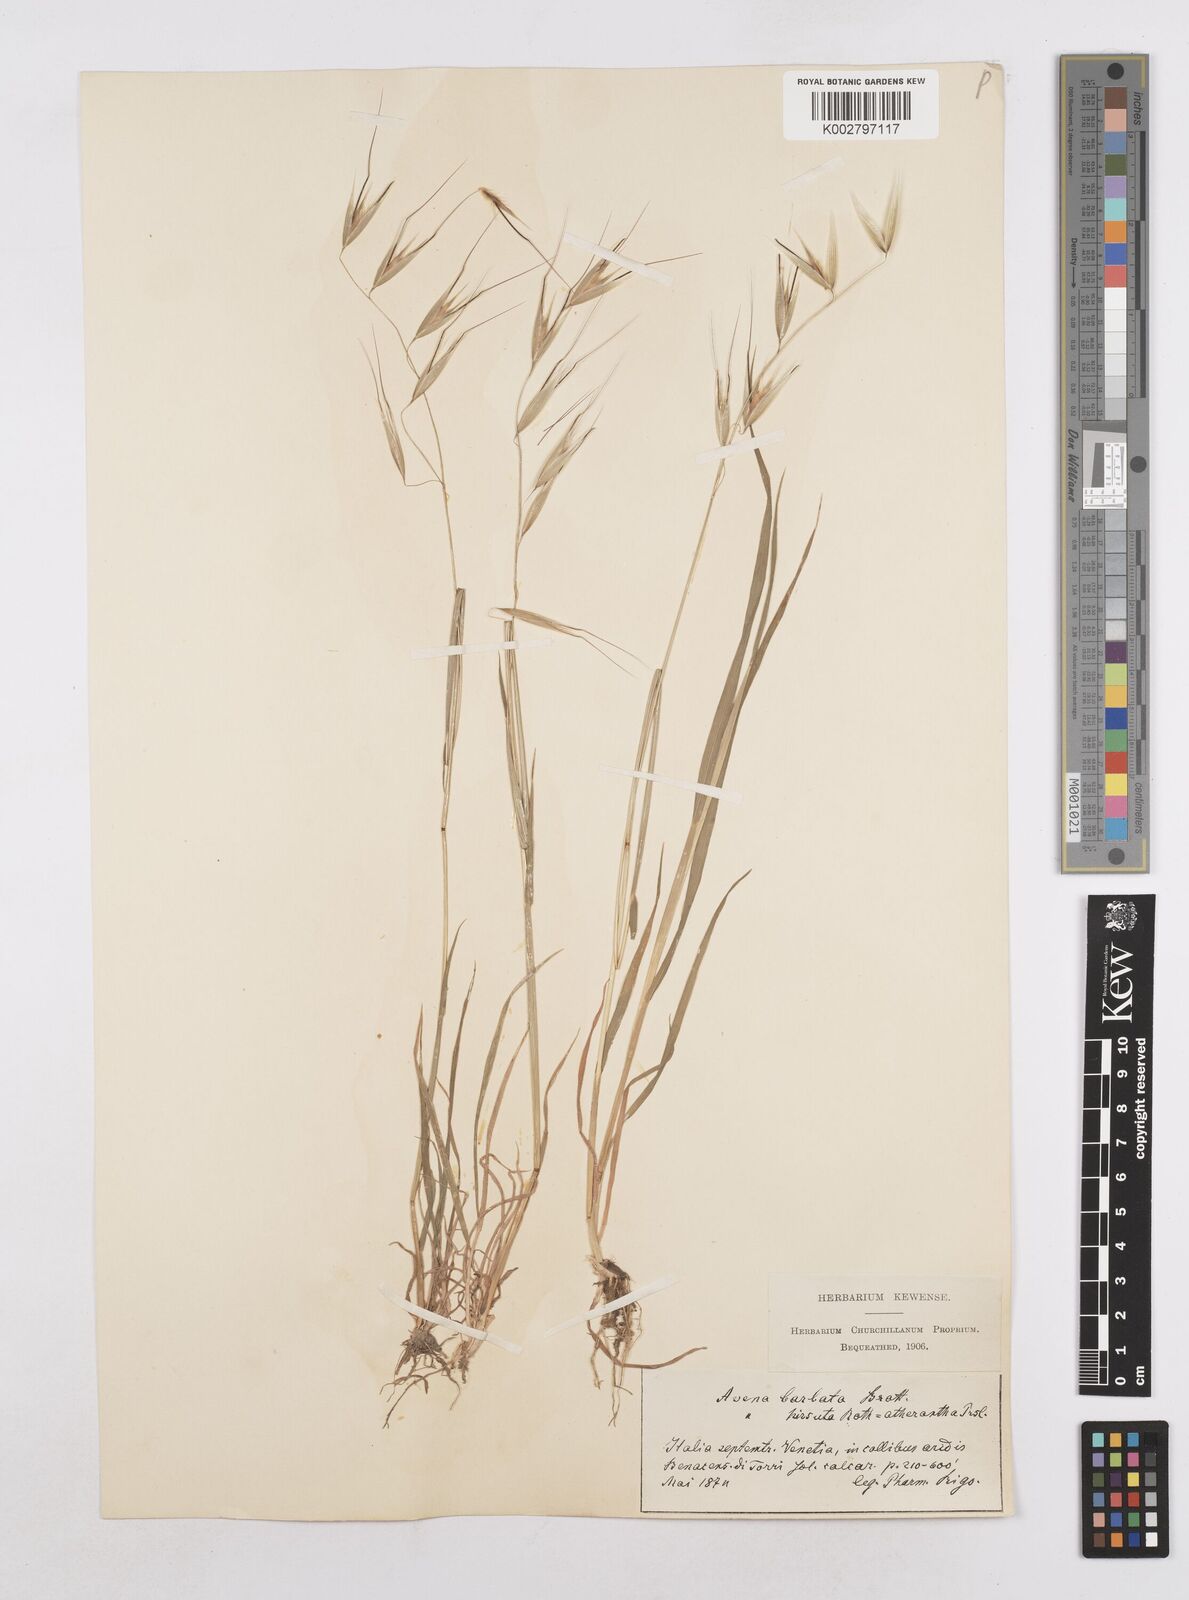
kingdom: Plantae
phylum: Tracheophyta
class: Liliopsida
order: Poales
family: Poaceae
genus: Avena
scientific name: Avena
